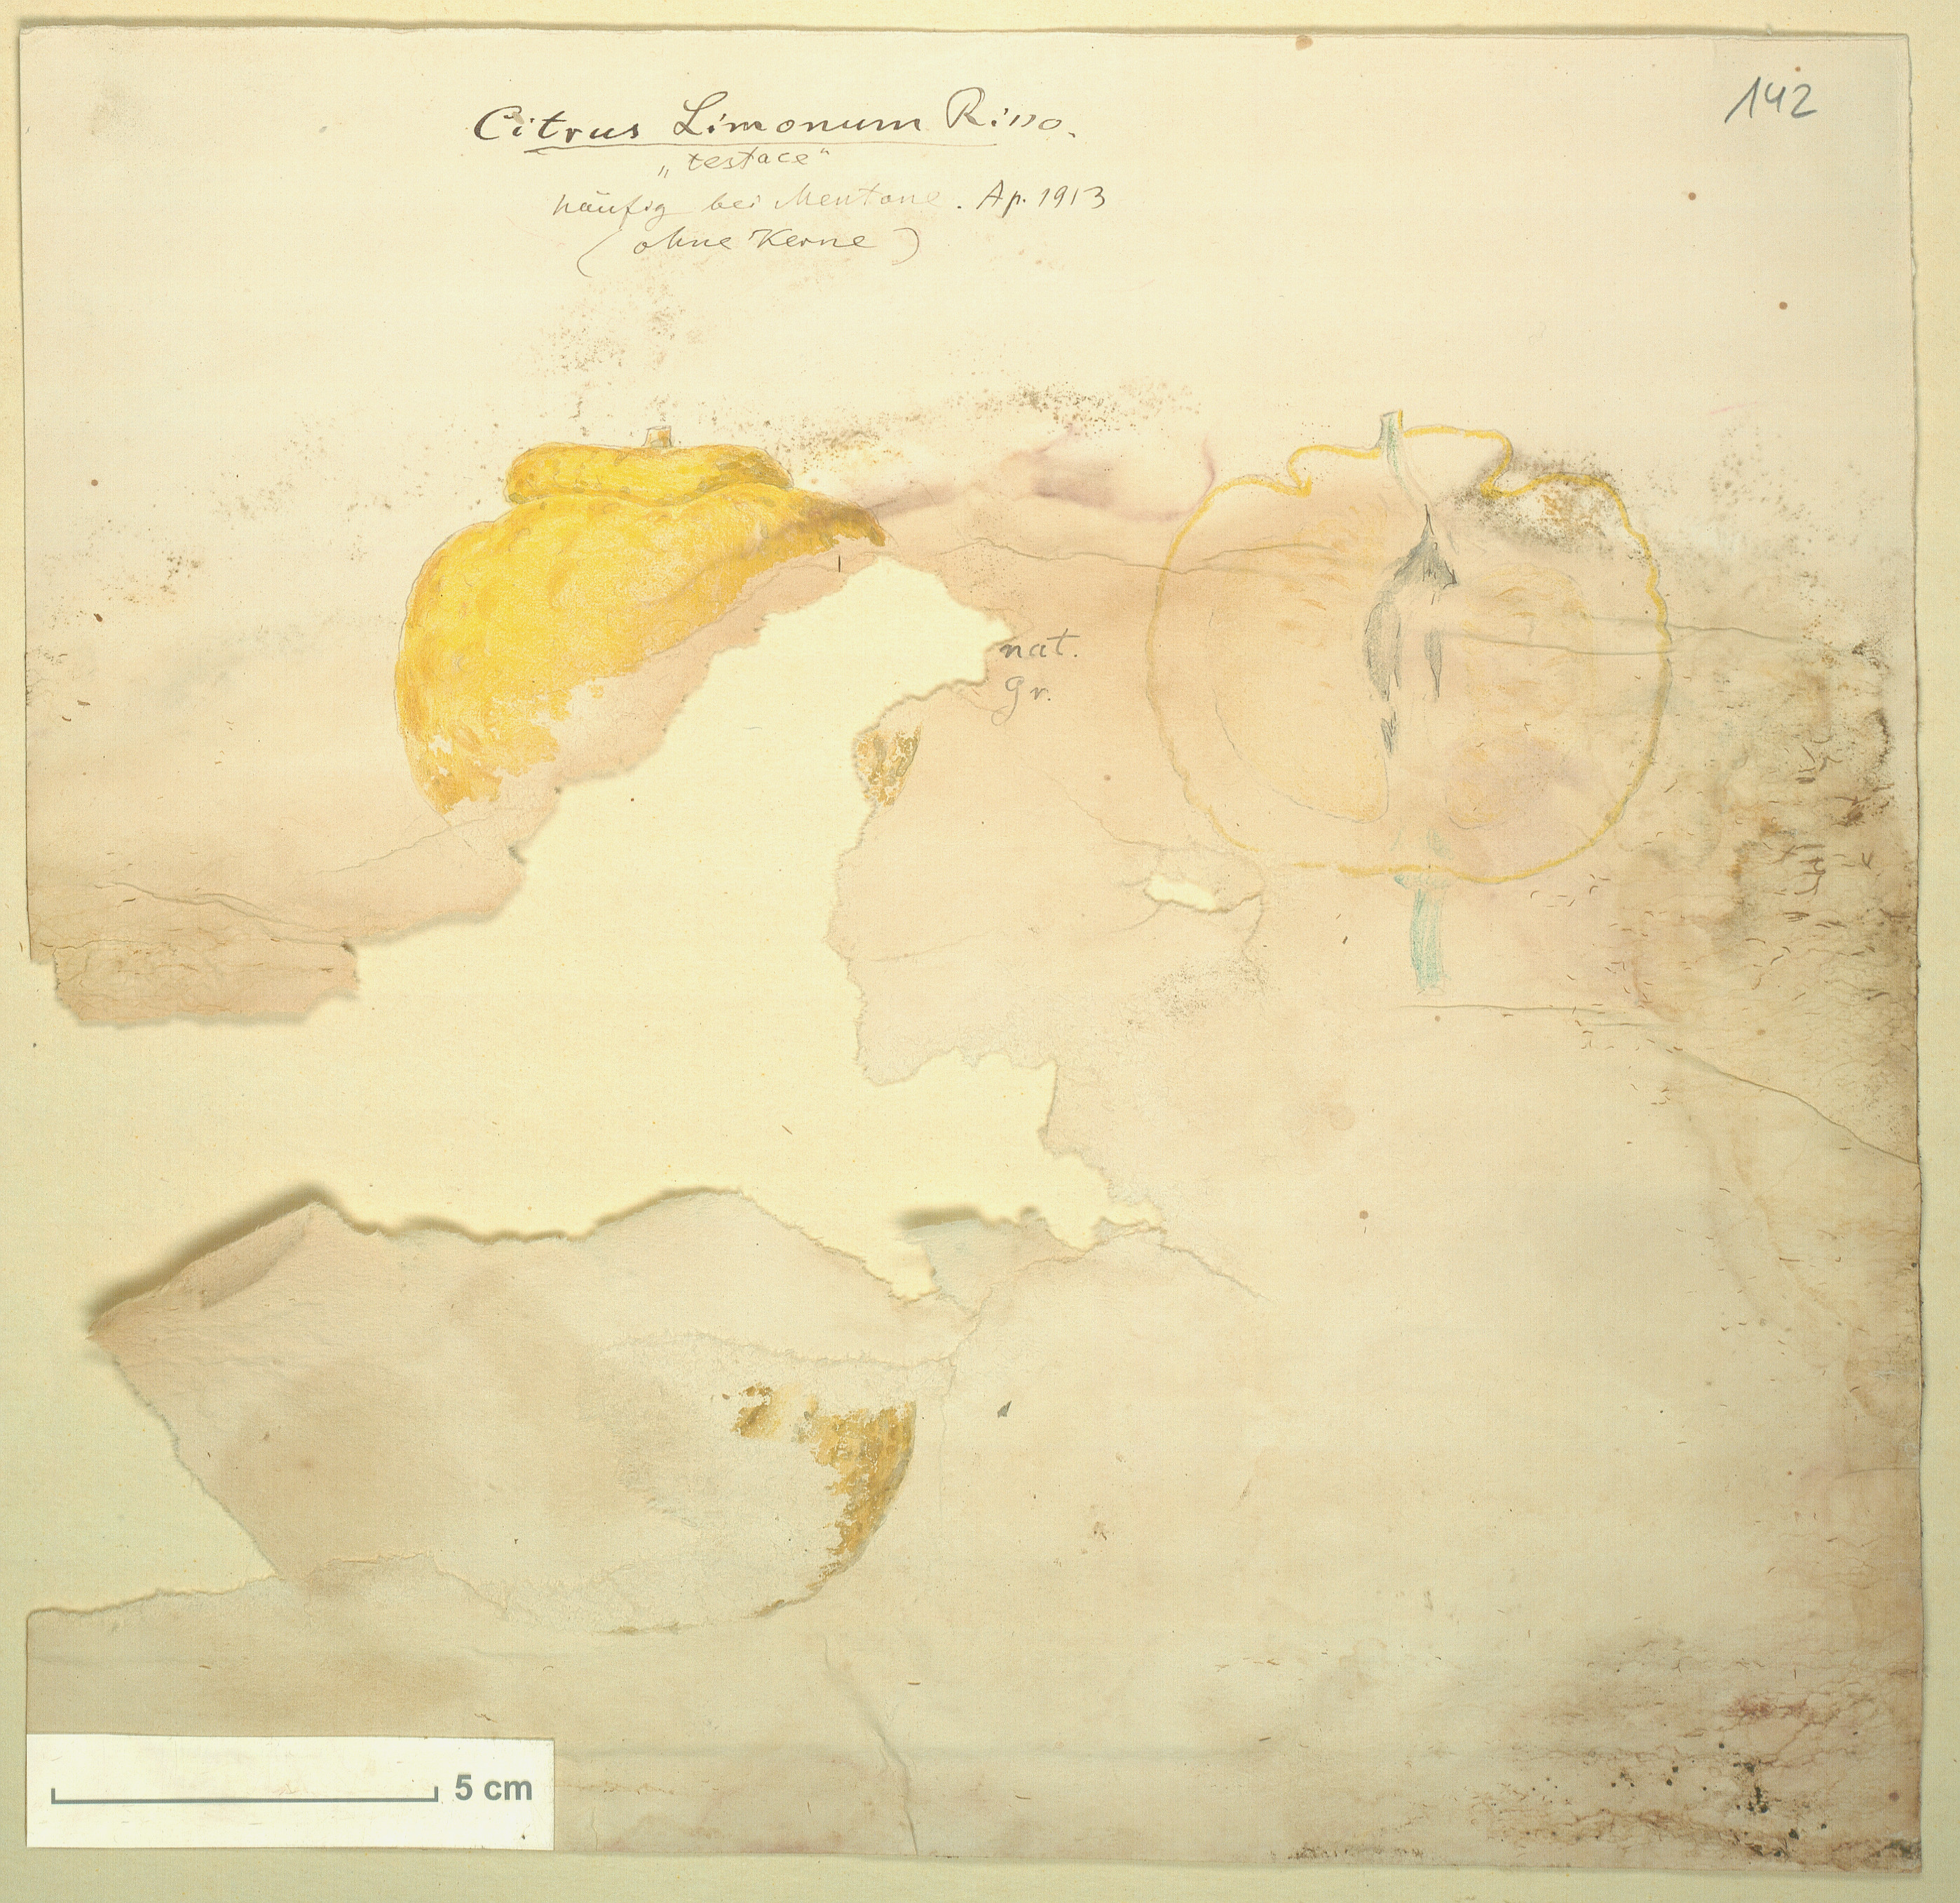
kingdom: Plantae
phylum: Tracheophyta
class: Magnoliopsida
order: Sapindales
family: Rutaceae
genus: Citrus
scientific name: Citrus limon
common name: Lemon
